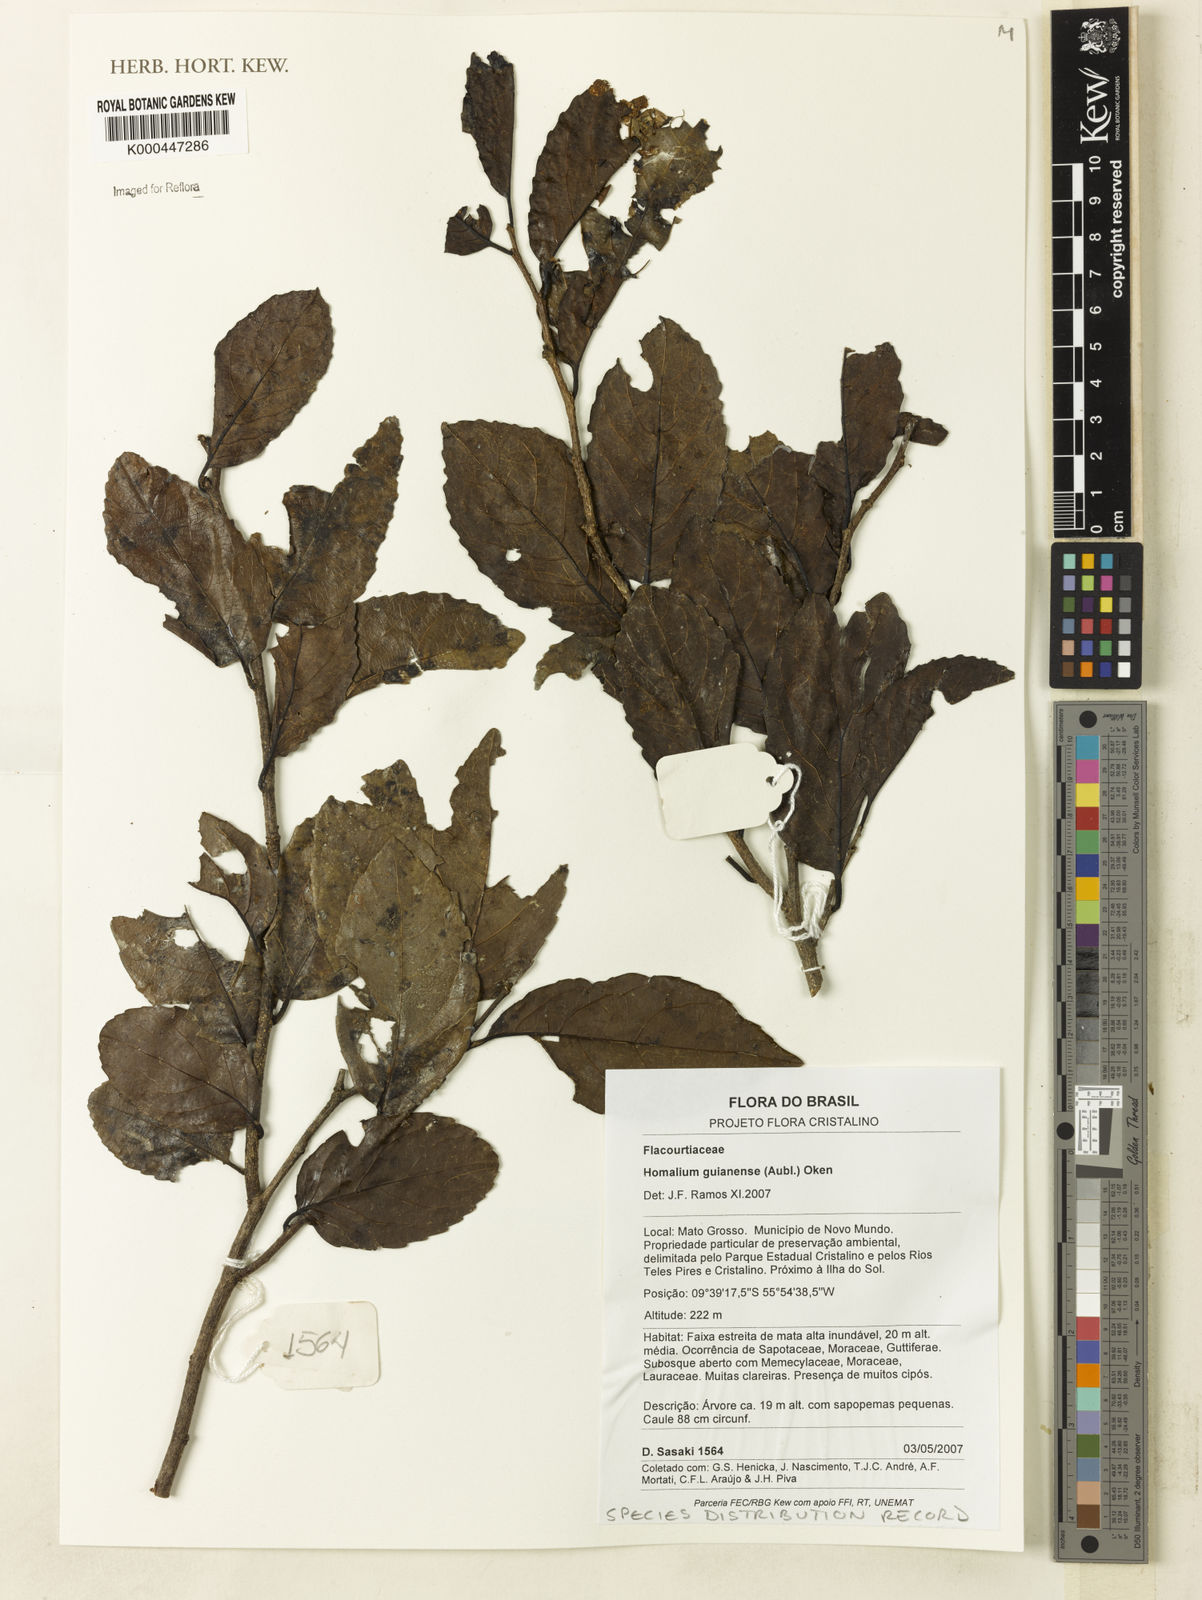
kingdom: Plantae
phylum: Tracheophyta
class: Magnoliopsida
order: Malpighiales
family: Salicaceae
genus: Homalium
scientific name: Homalium guianense
